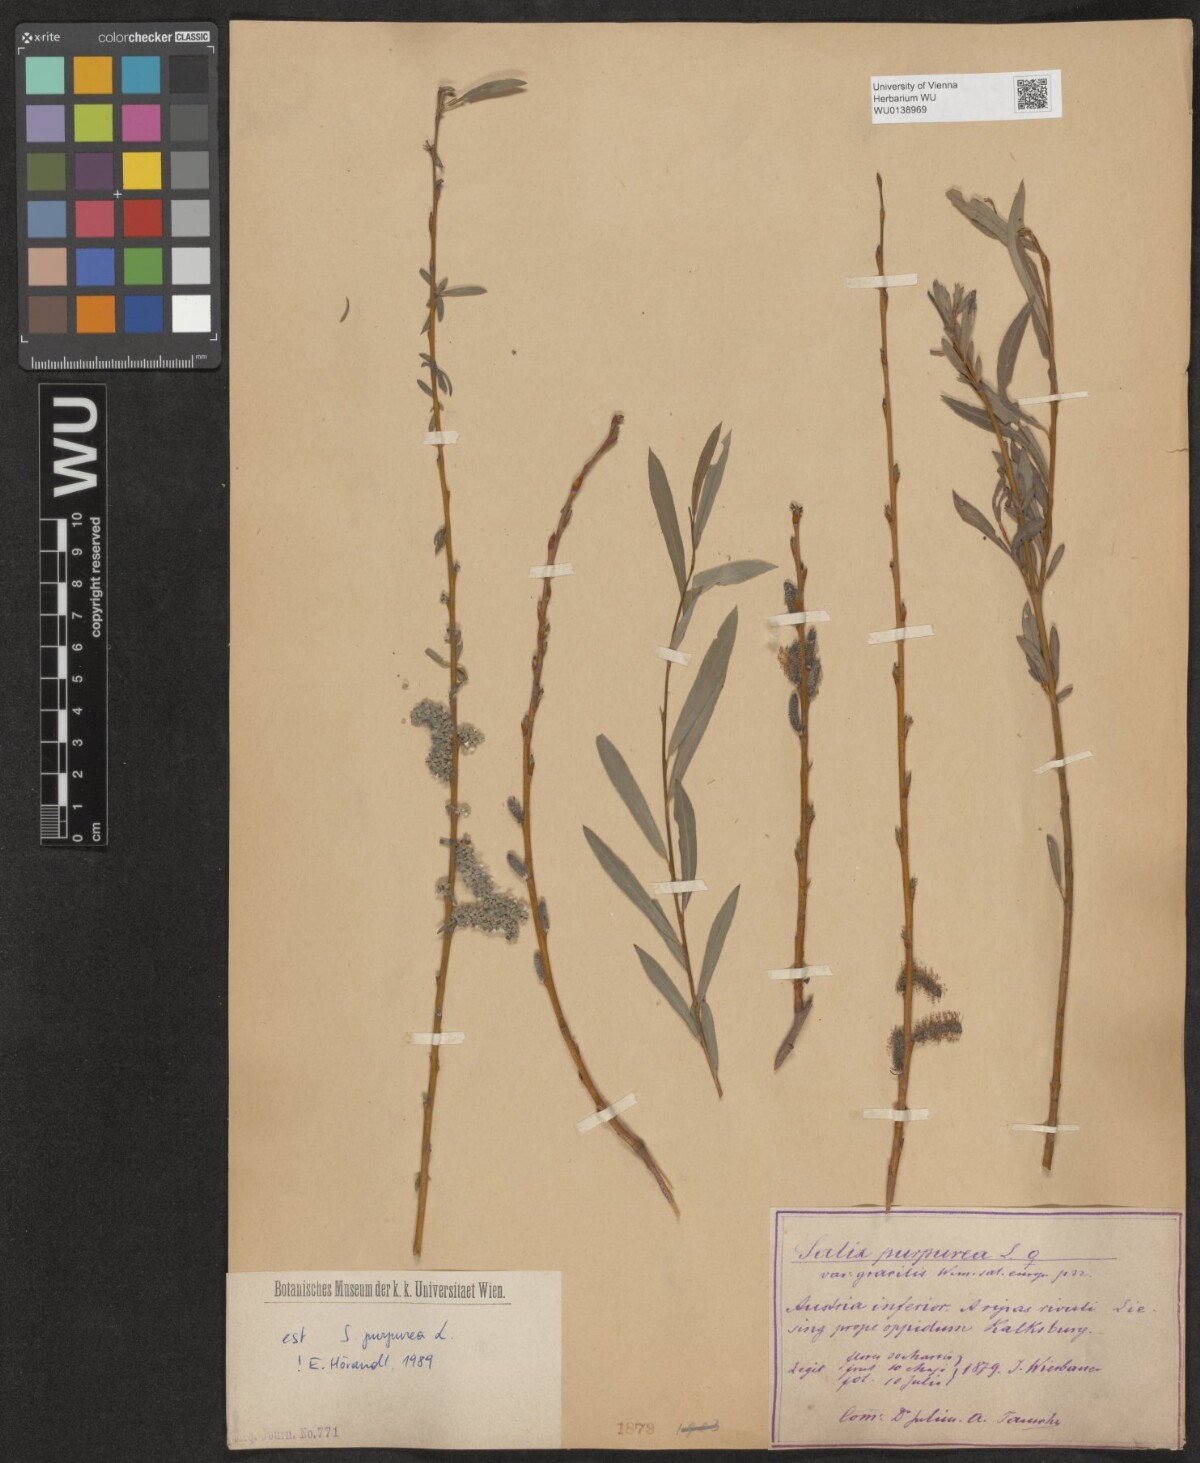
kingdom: Plantae
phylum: Tracheophyta
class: Magnoliopsida
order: Malpighiales
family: Salicaceae
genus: Salix
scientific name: Salix purpurea
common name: Purple willow
